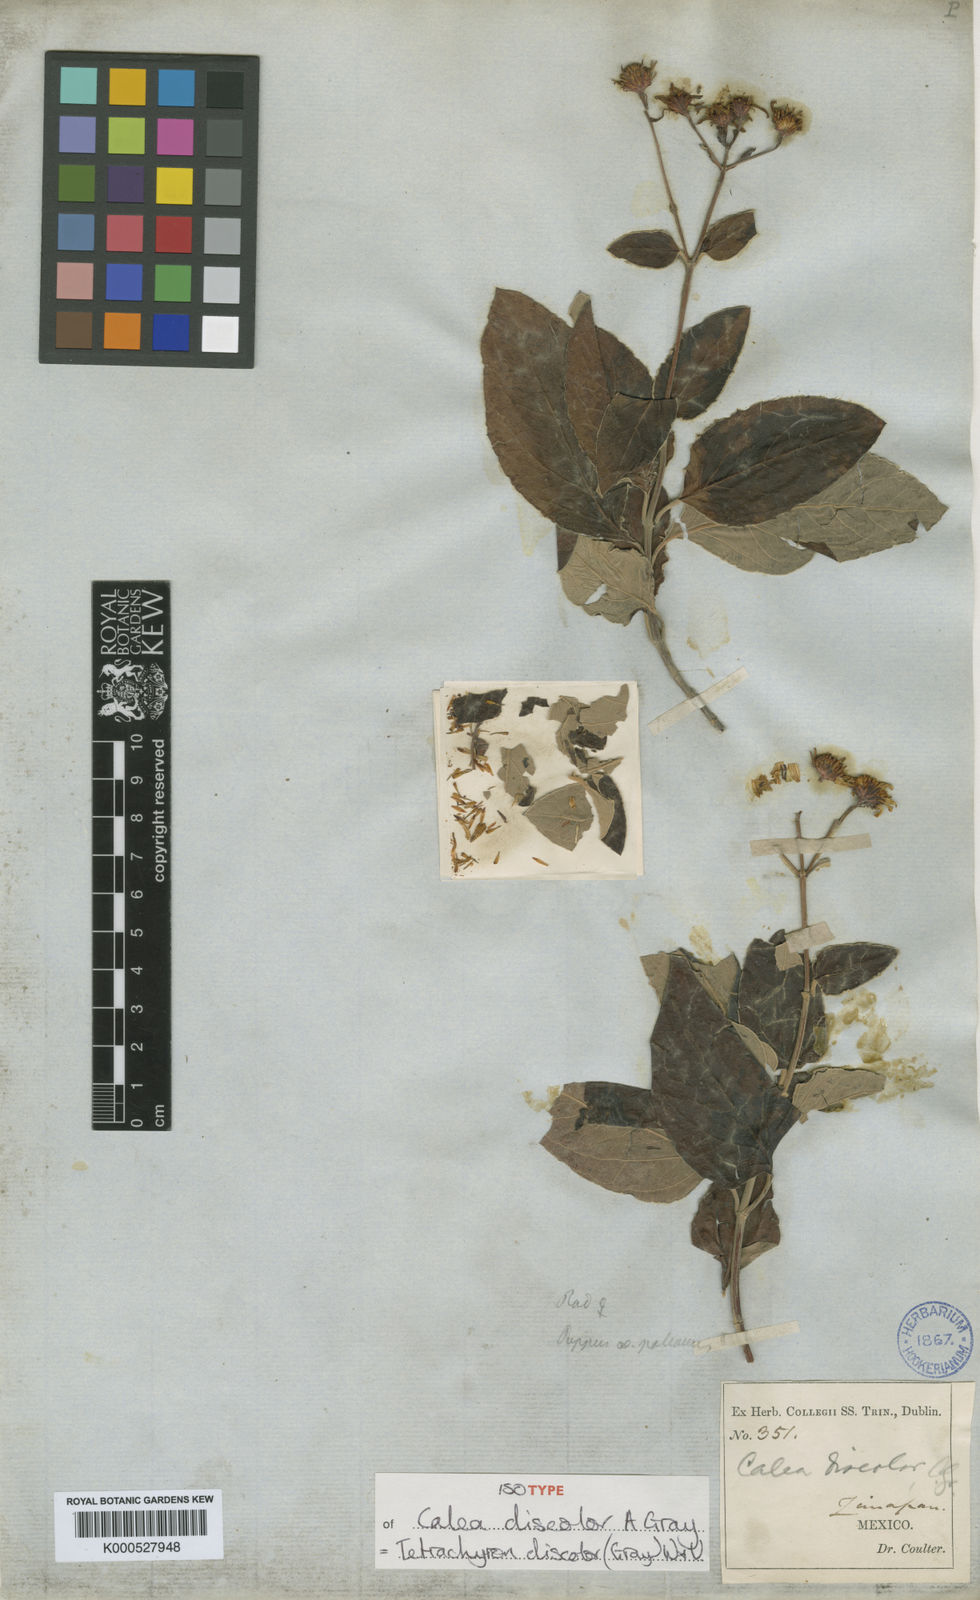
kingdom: Plantae
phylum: Tracheophyta
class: Magnoliopsida
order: Asterales
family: Asteraceae
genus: Tetrachyron
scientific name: Tetrachyron discolor
